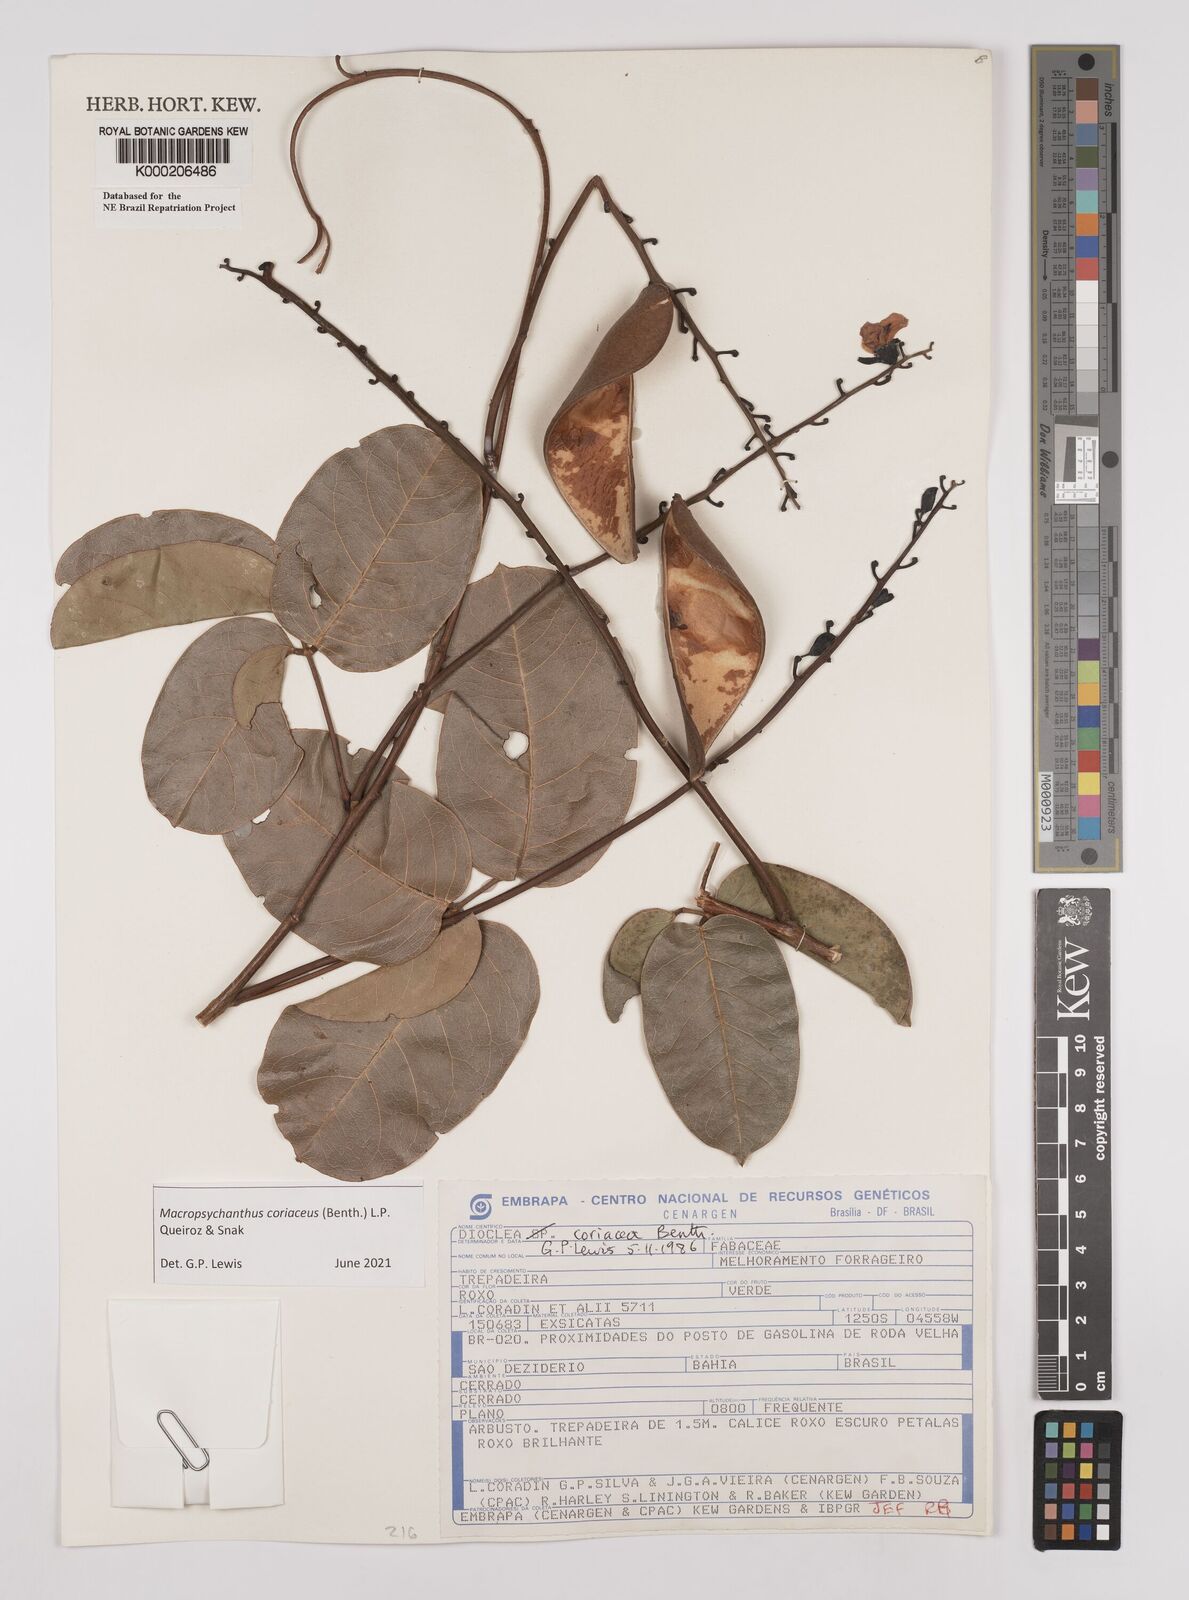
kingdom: Plantae
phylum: Tracheophyta
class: Magnoliopsida
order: Fabales
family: Fabaceae
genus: Macropsychanthus
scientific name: Macropsychanthus coriaceus
